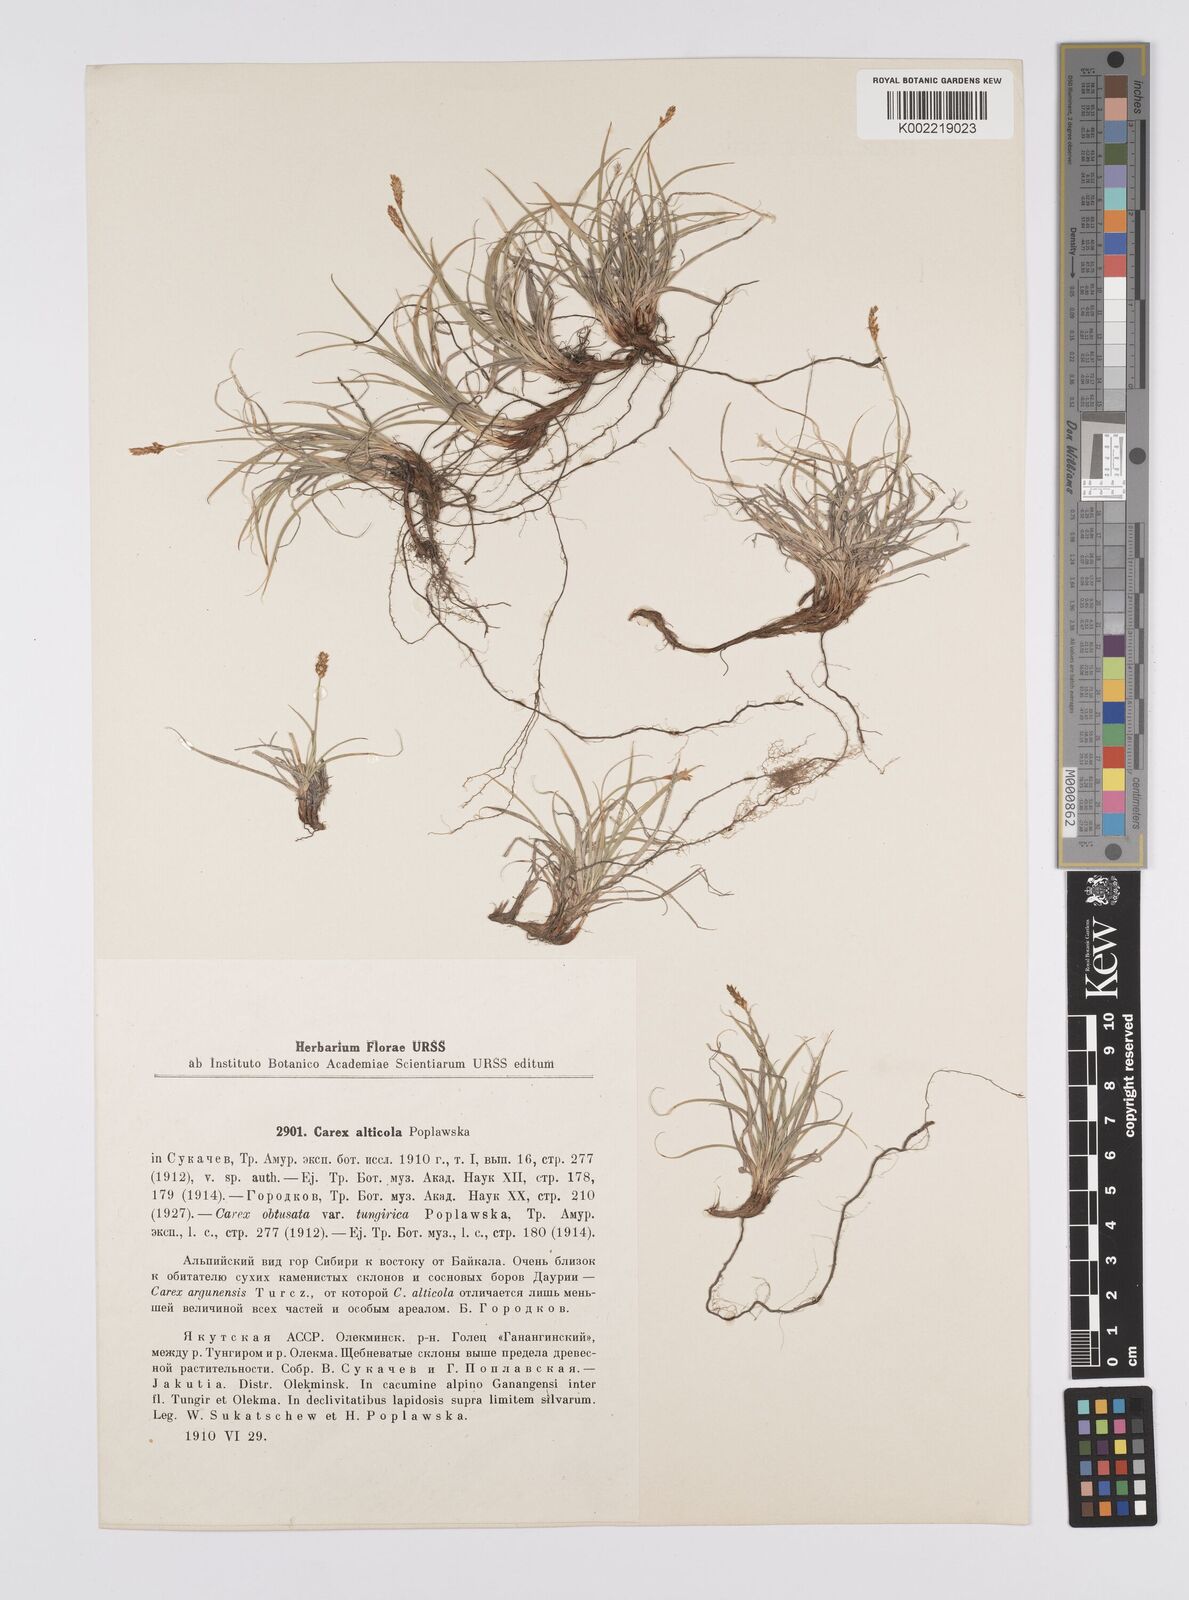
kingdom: Plantae
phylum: Tracheophyta
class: Liliopsida
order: Poales
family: Cyperaceae
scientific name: Cyperaceae
